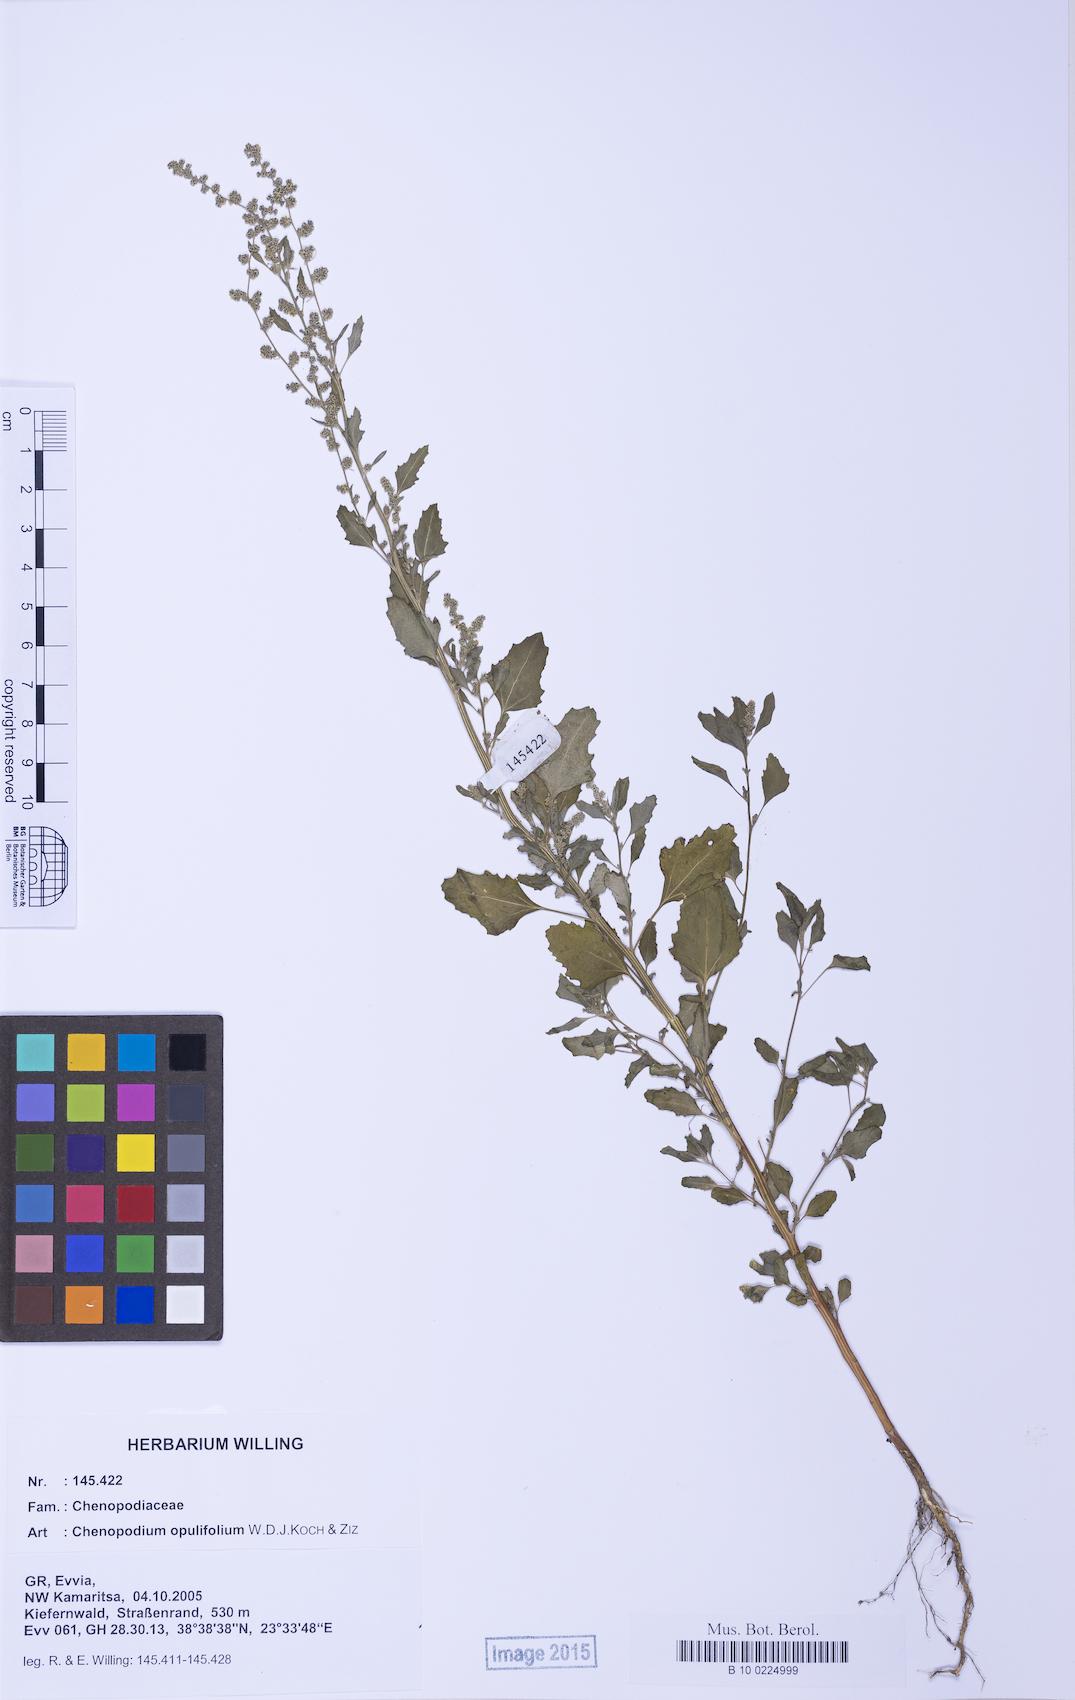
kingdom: Plantae
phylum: Tracheophyta
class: Magnoliopsida
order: Caryophyllales
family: Amaranthaceae
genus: Chenopodium
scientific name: Chenopodium album
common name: Fat-hen
